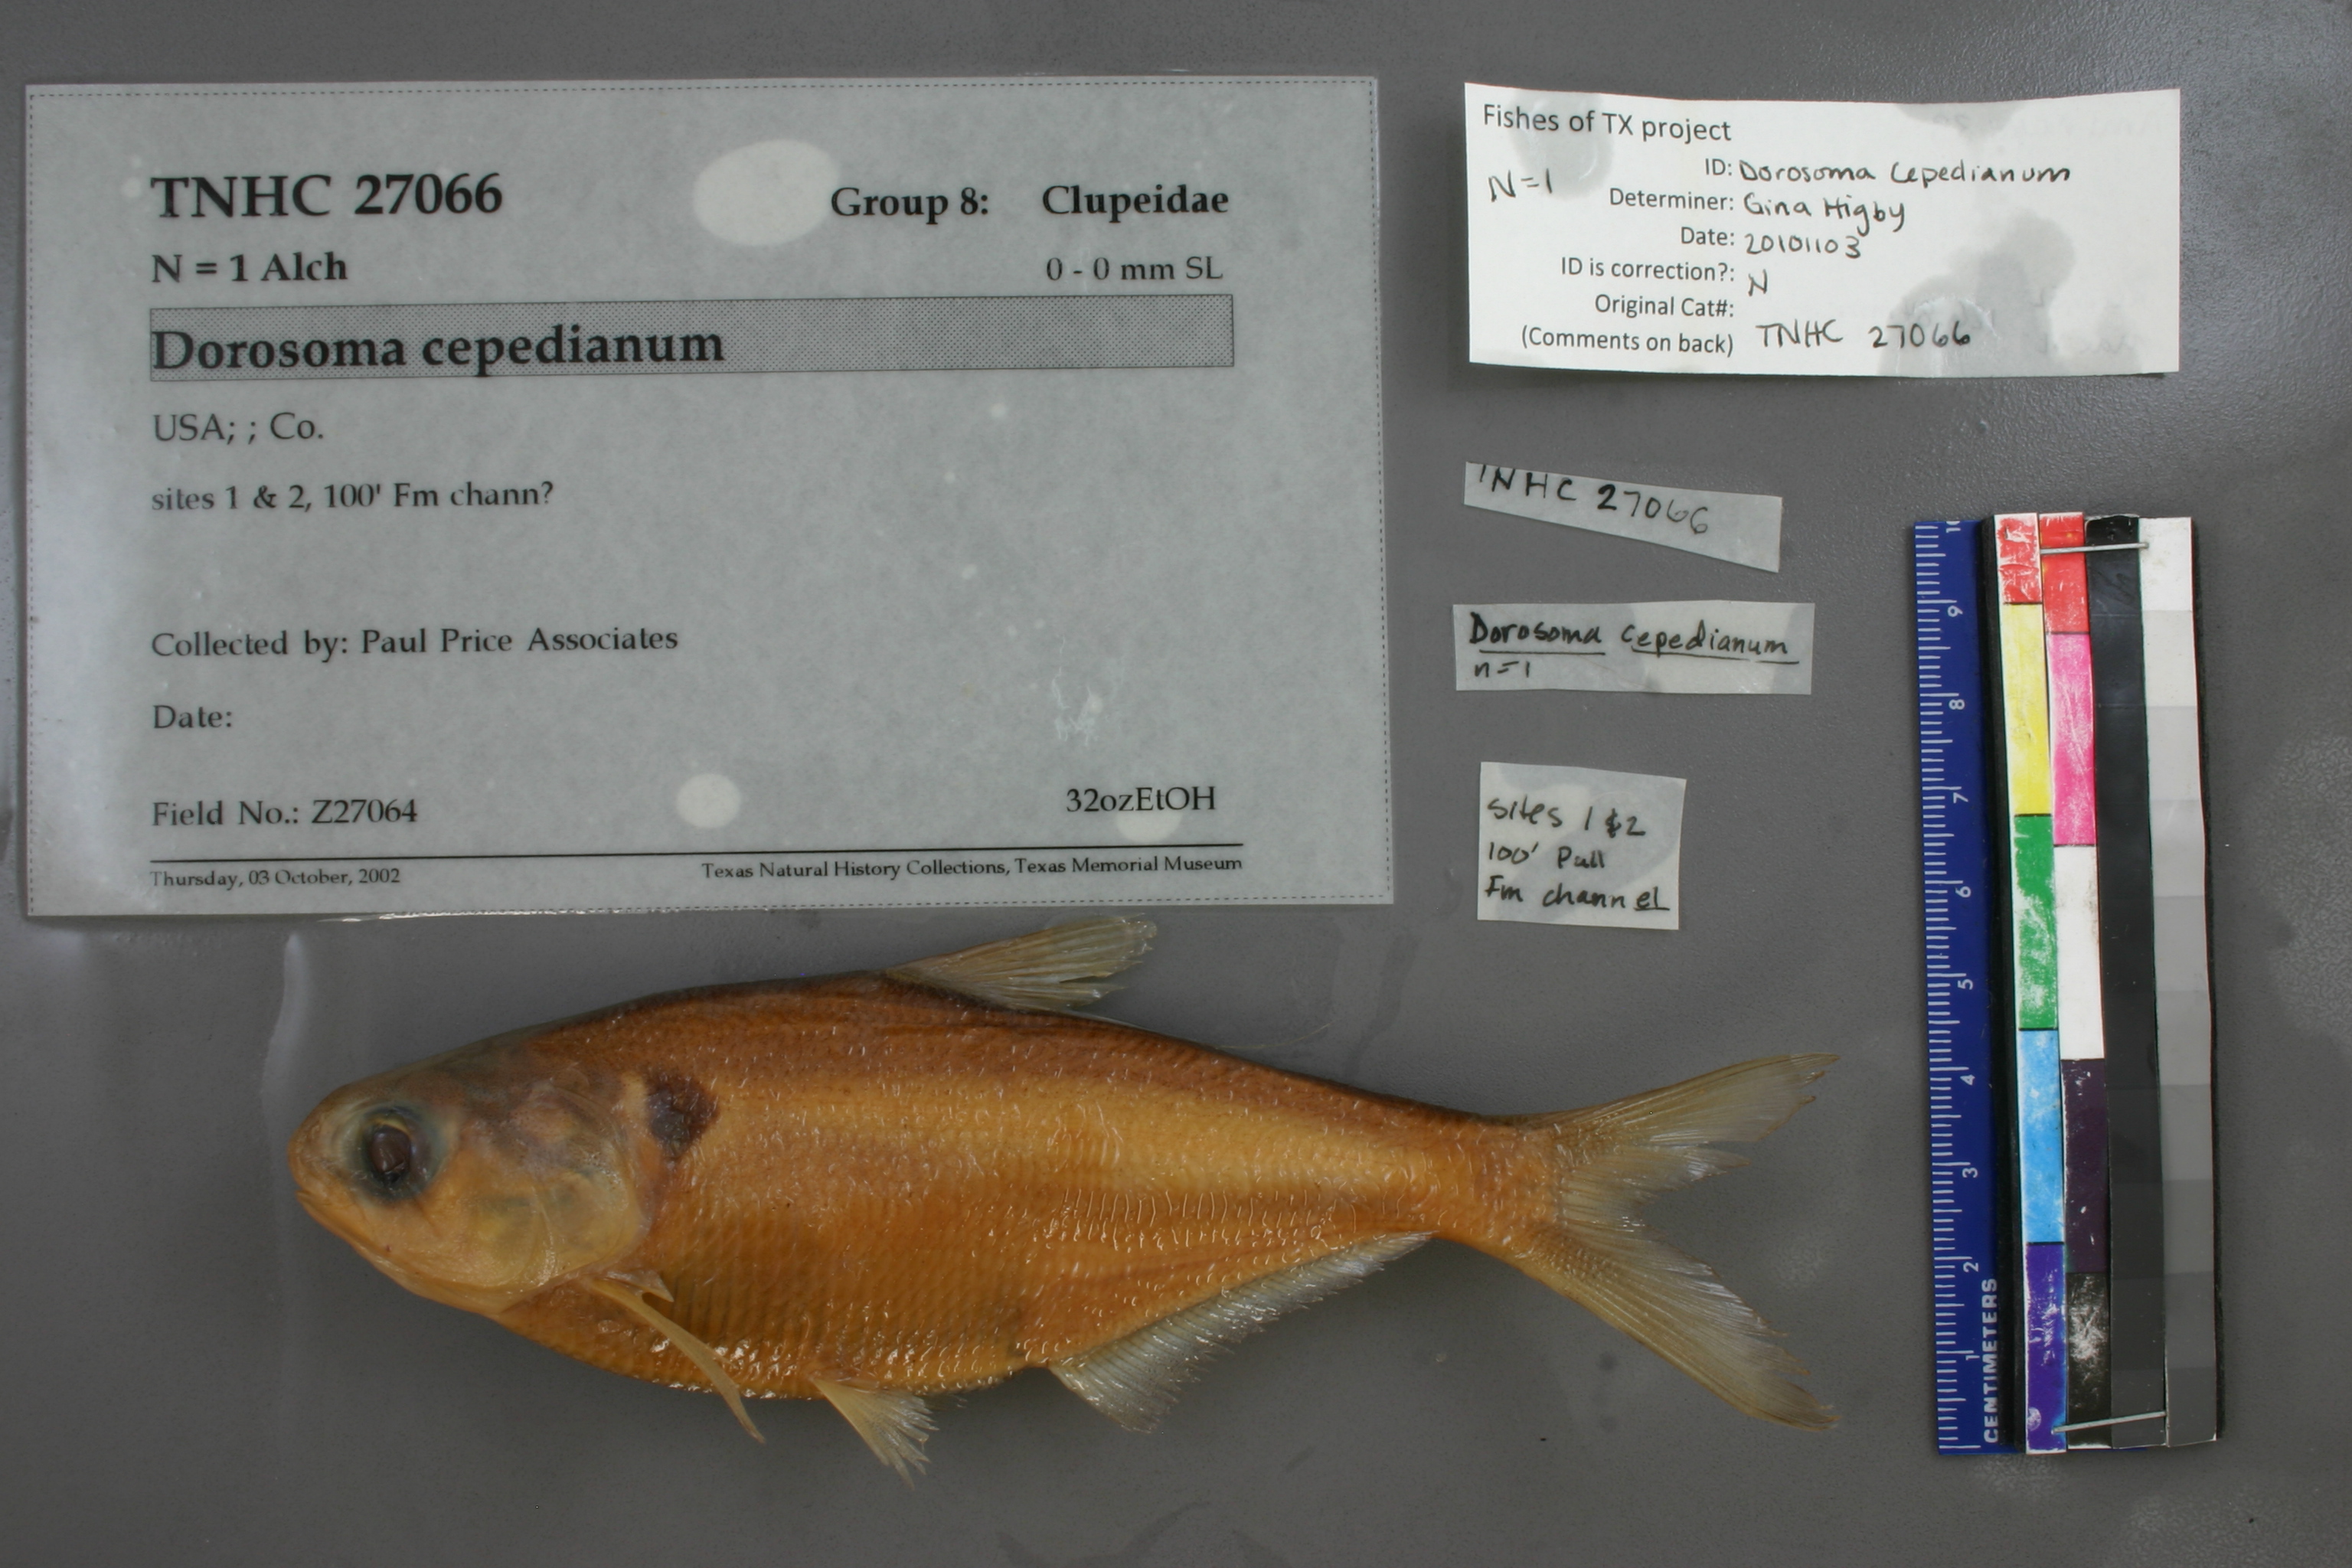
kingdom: Animalia
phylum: Chordata
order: Clupeiformes
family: Clupeidae
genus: Dorosoma
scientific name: Dorosoma cepedianum
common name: Gizzard shad
